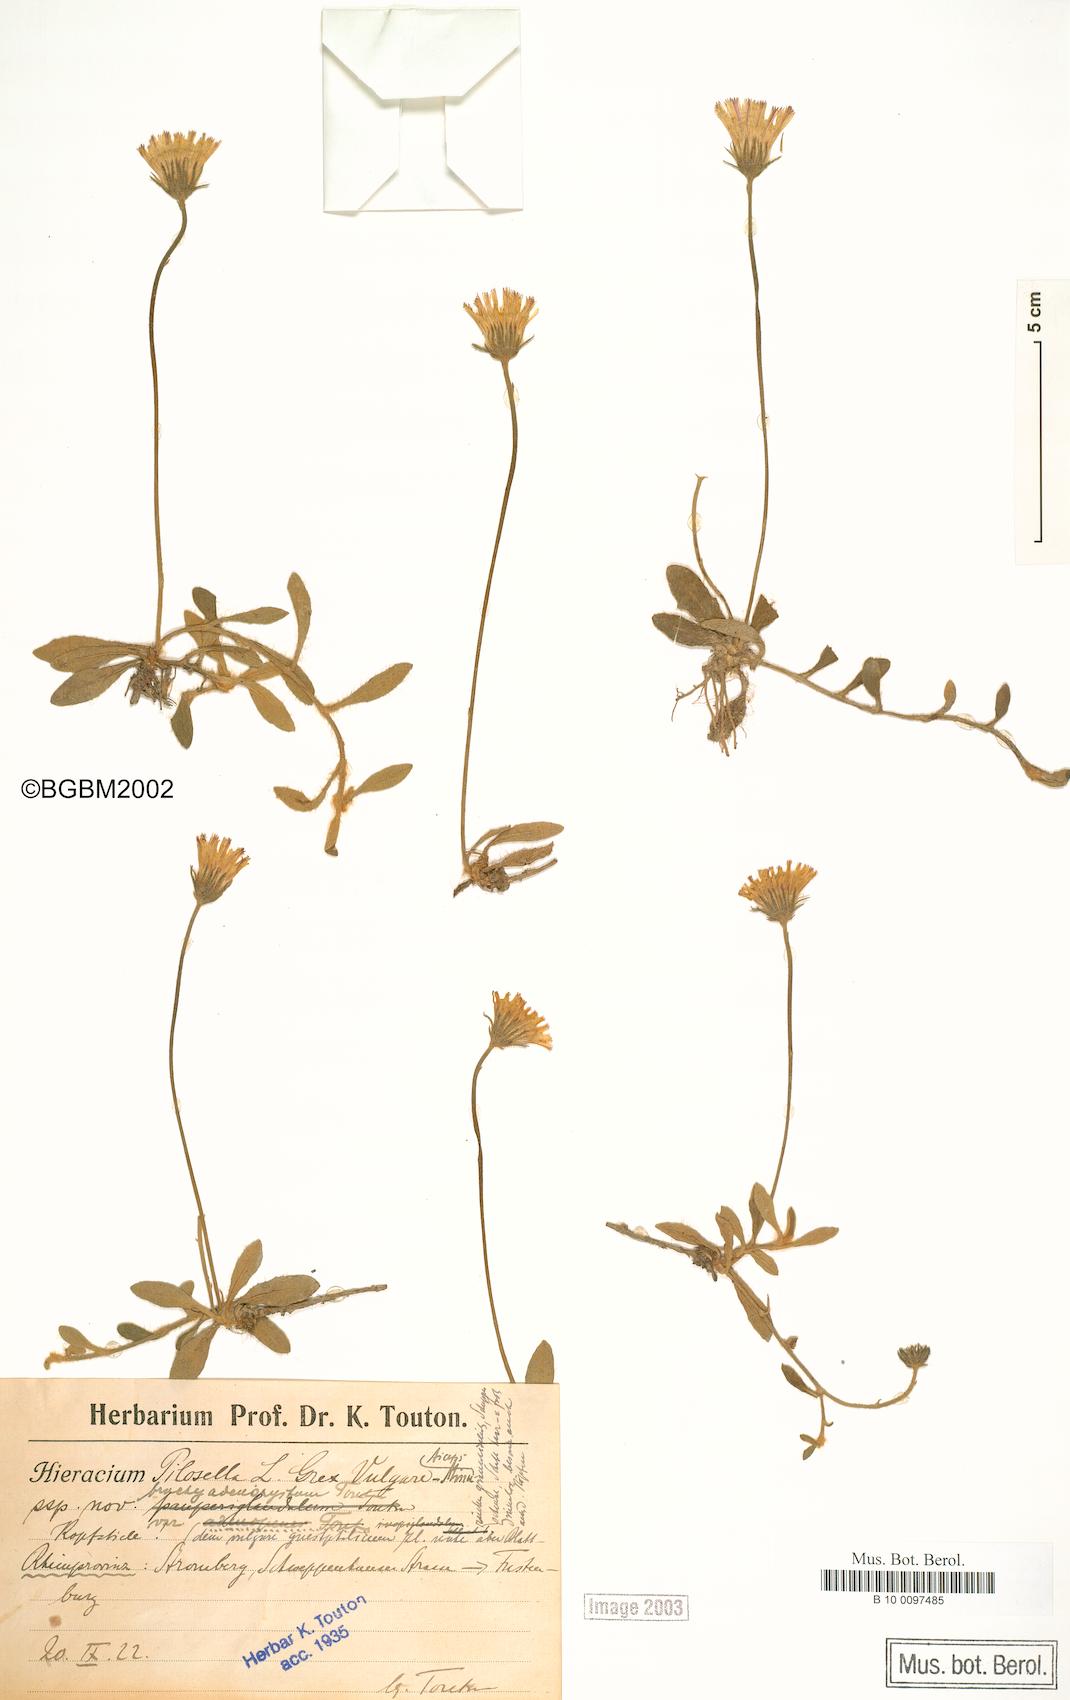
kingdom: Plantae
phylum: Tracheophyta
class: Magnoliopsida
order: Asterales
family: Asteraceae
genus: Pilosella
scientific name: Pilosella officinarum
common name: Mouse-ear hawkweed
